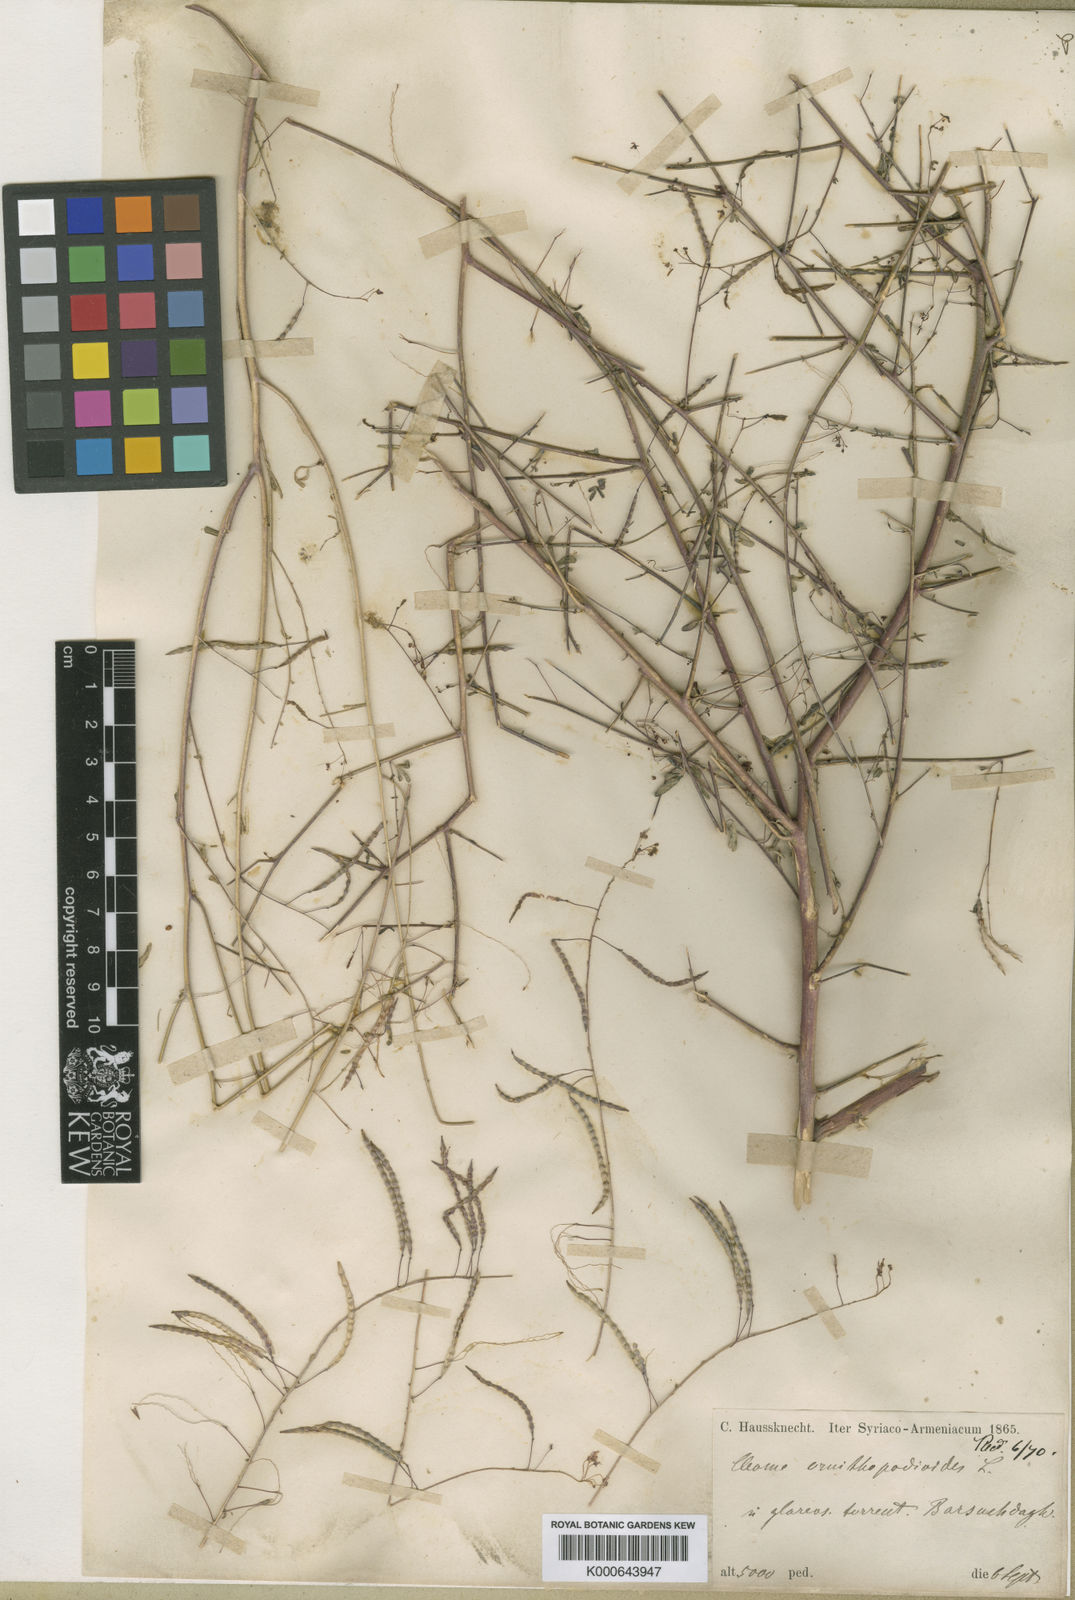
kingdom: Plantae
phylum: Tracheophyta
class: Magnoliopsida
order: Brassicales
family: Cleomaceae
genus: Cleome
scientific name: Cleome iberica
